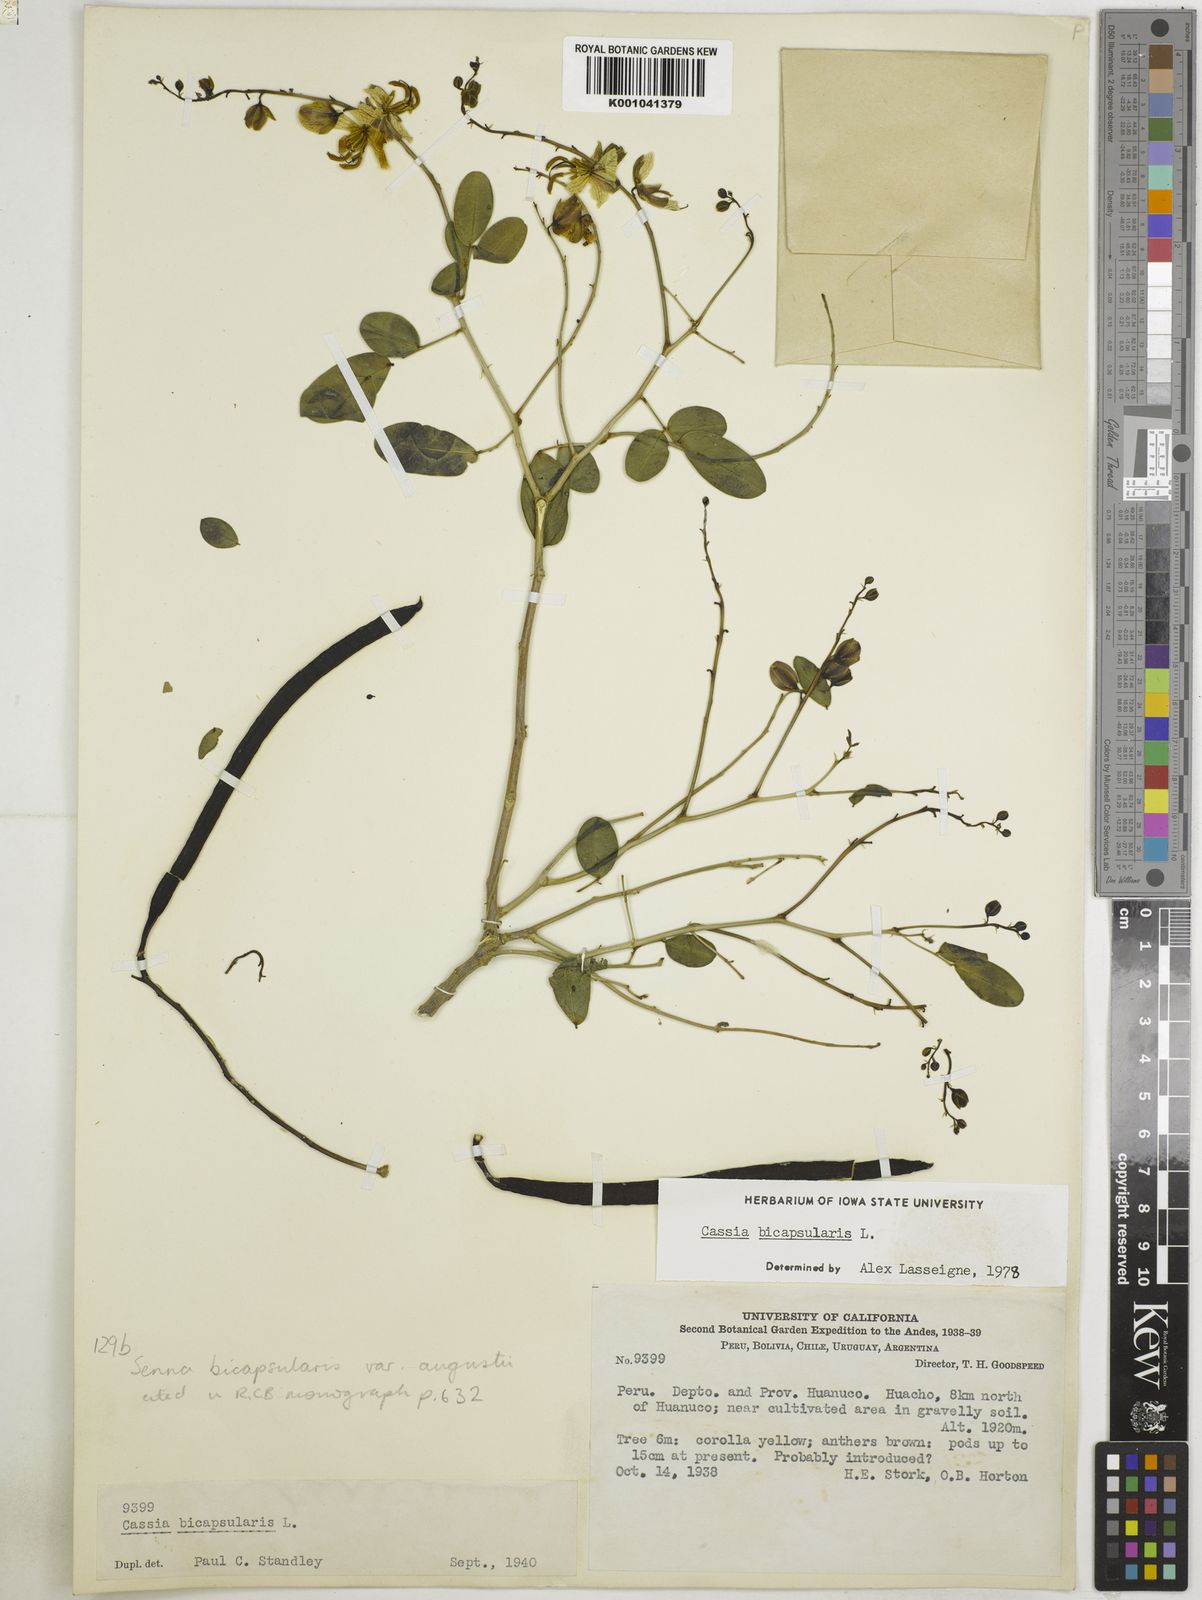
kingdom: Plantae
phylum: Tracheophyta
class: Magnoliopsida
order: Fabales
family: Fabaceae
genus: Senna
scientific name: Senna
